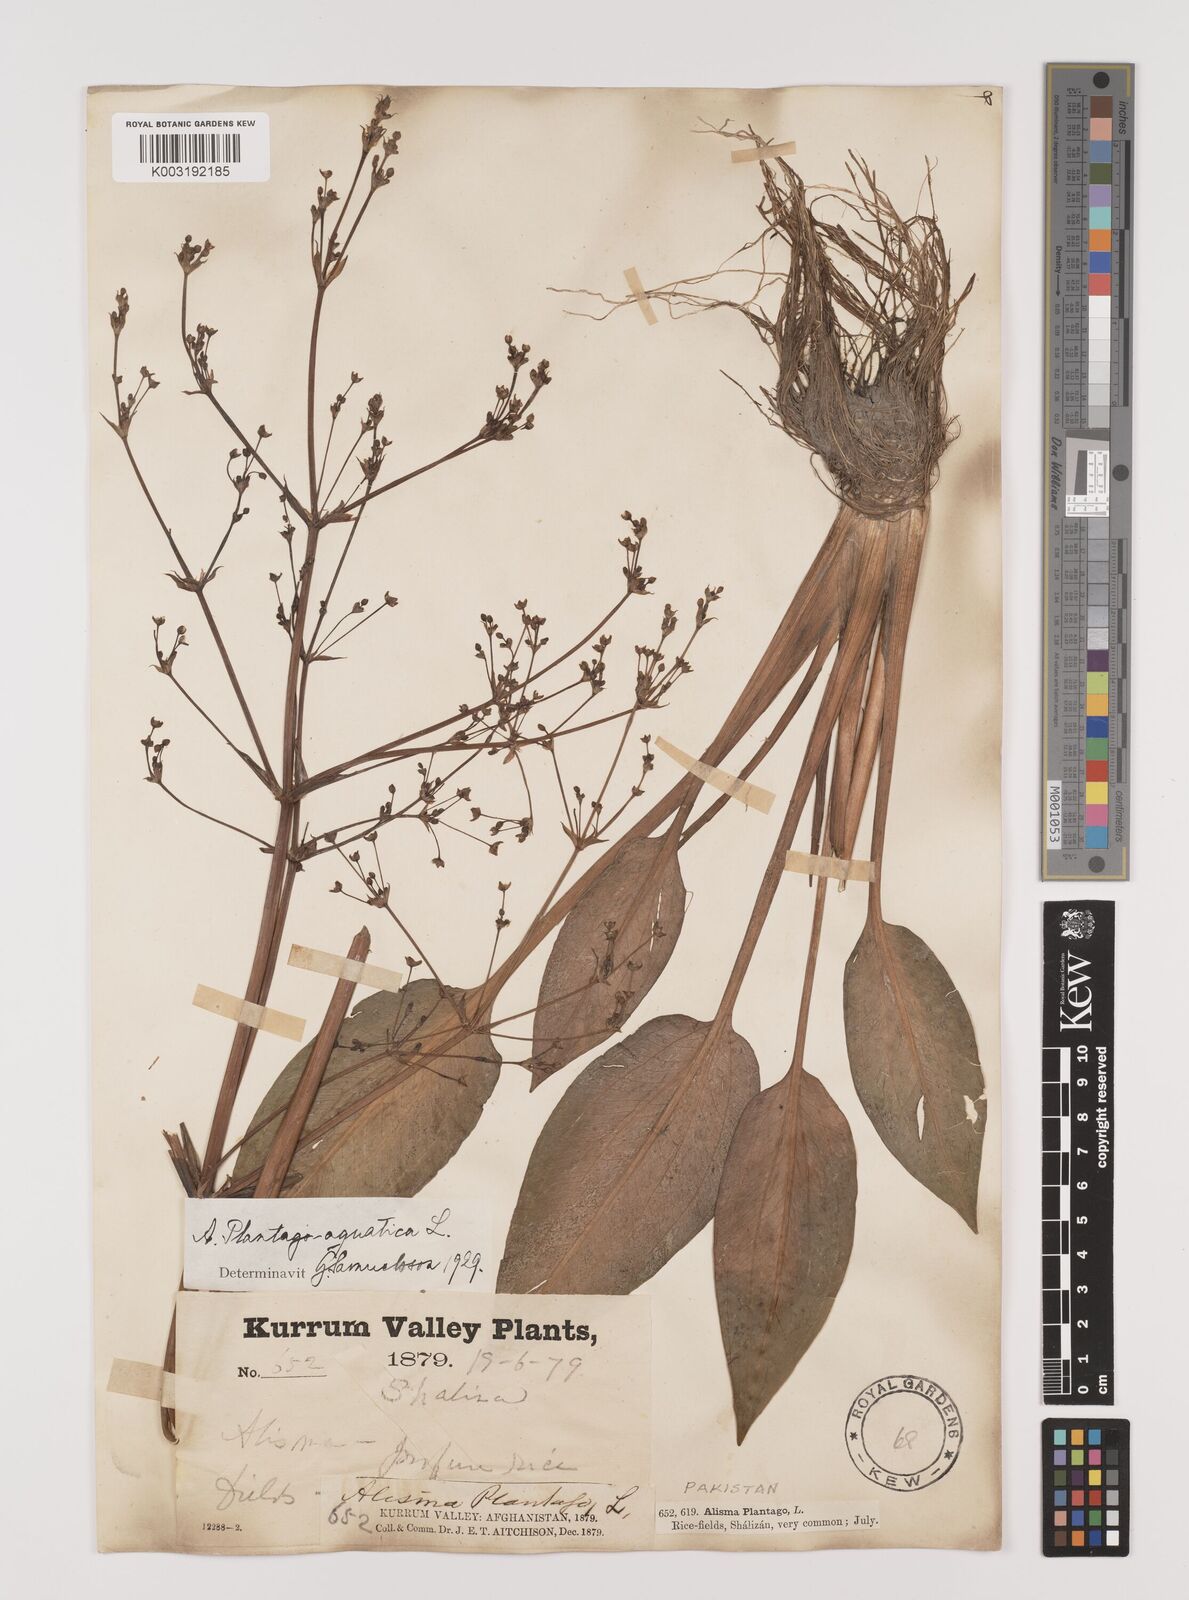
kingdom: Plantae
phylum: Tracheophyta
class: Liliopsida
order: Alismatales
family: Alismataceae
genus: Alisma
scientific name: Alisma plantago-aquatica
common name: Water-plantain
